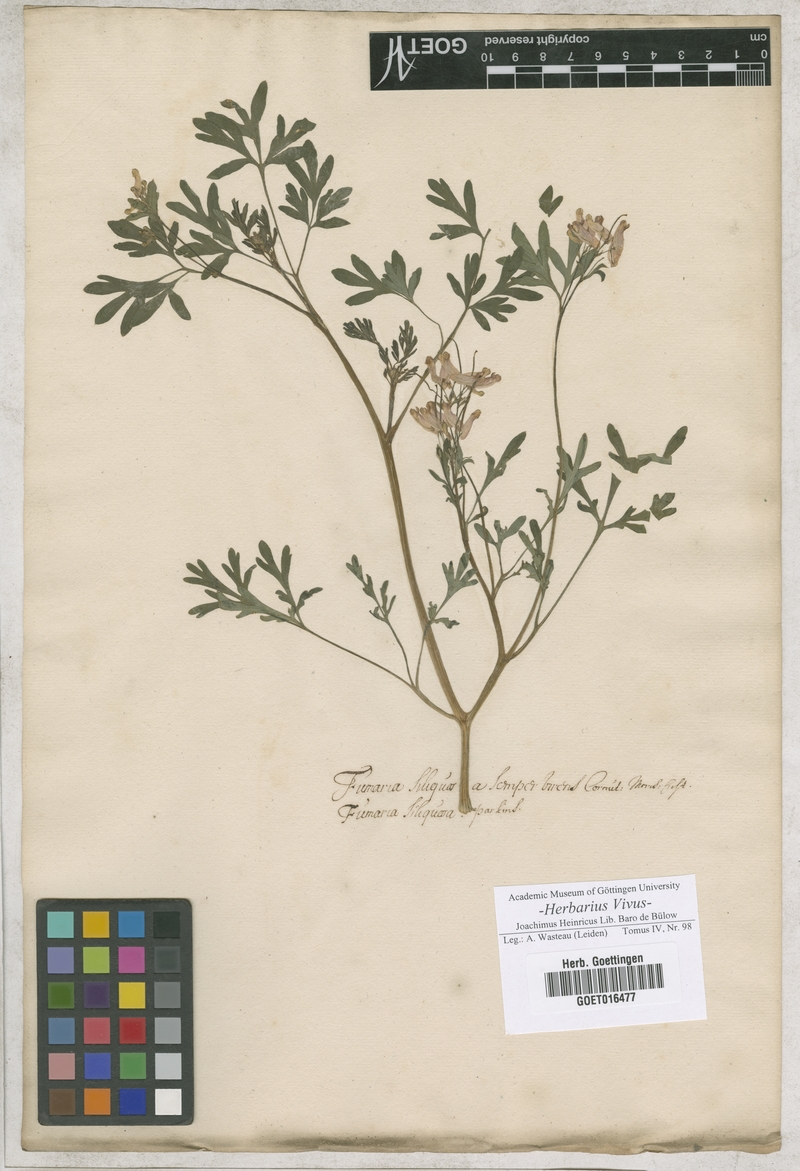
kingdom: Plantae
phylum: Tracheophyta
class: Magnoliopsida
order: Ranunculales
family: Papaveraceae
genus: Corydalis
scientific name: Corydalis solida
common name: Bird-in-a-bush
